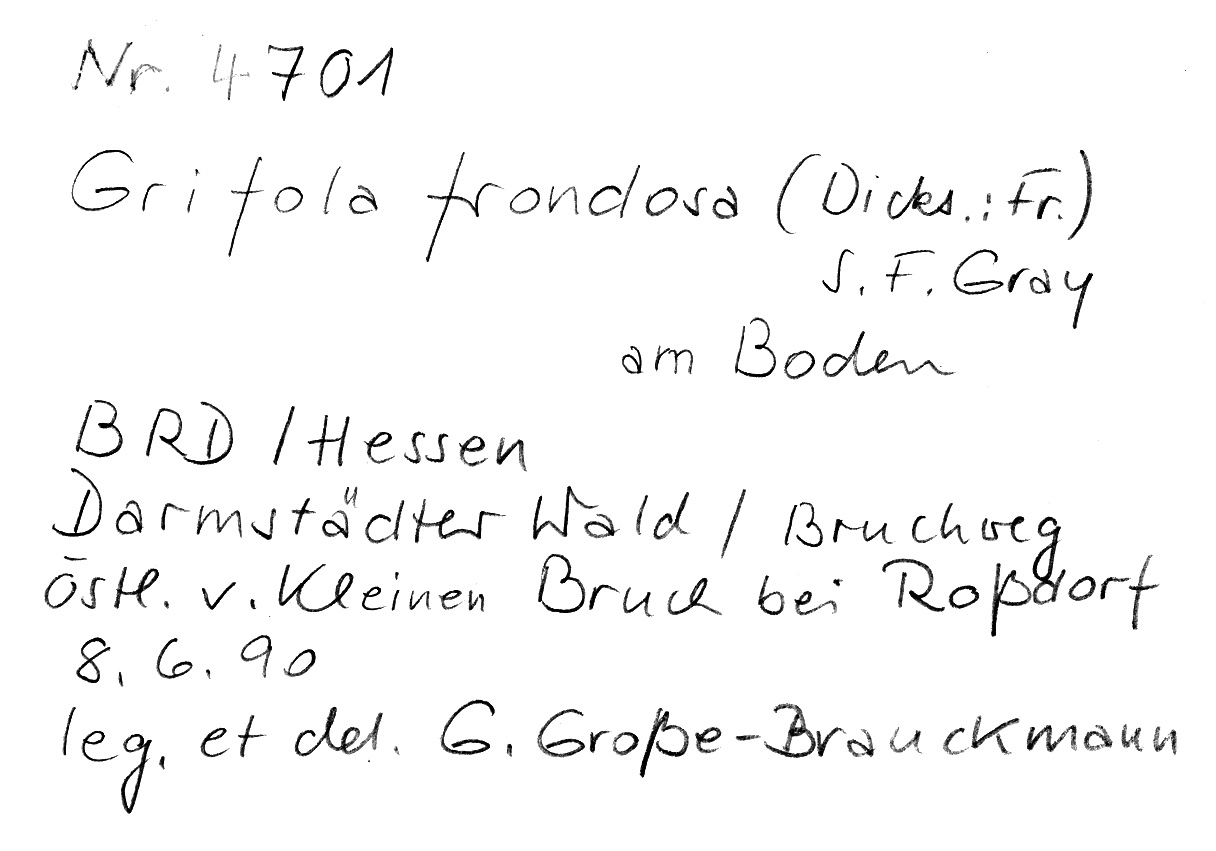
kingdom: Fungi
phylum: Basidiomycota
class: Agaricomycetes
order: Polyporales
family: Phanerochaetaceae
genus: Bjerkandera
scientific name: Bjerkandera fumosa
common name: Big smoky bracket
